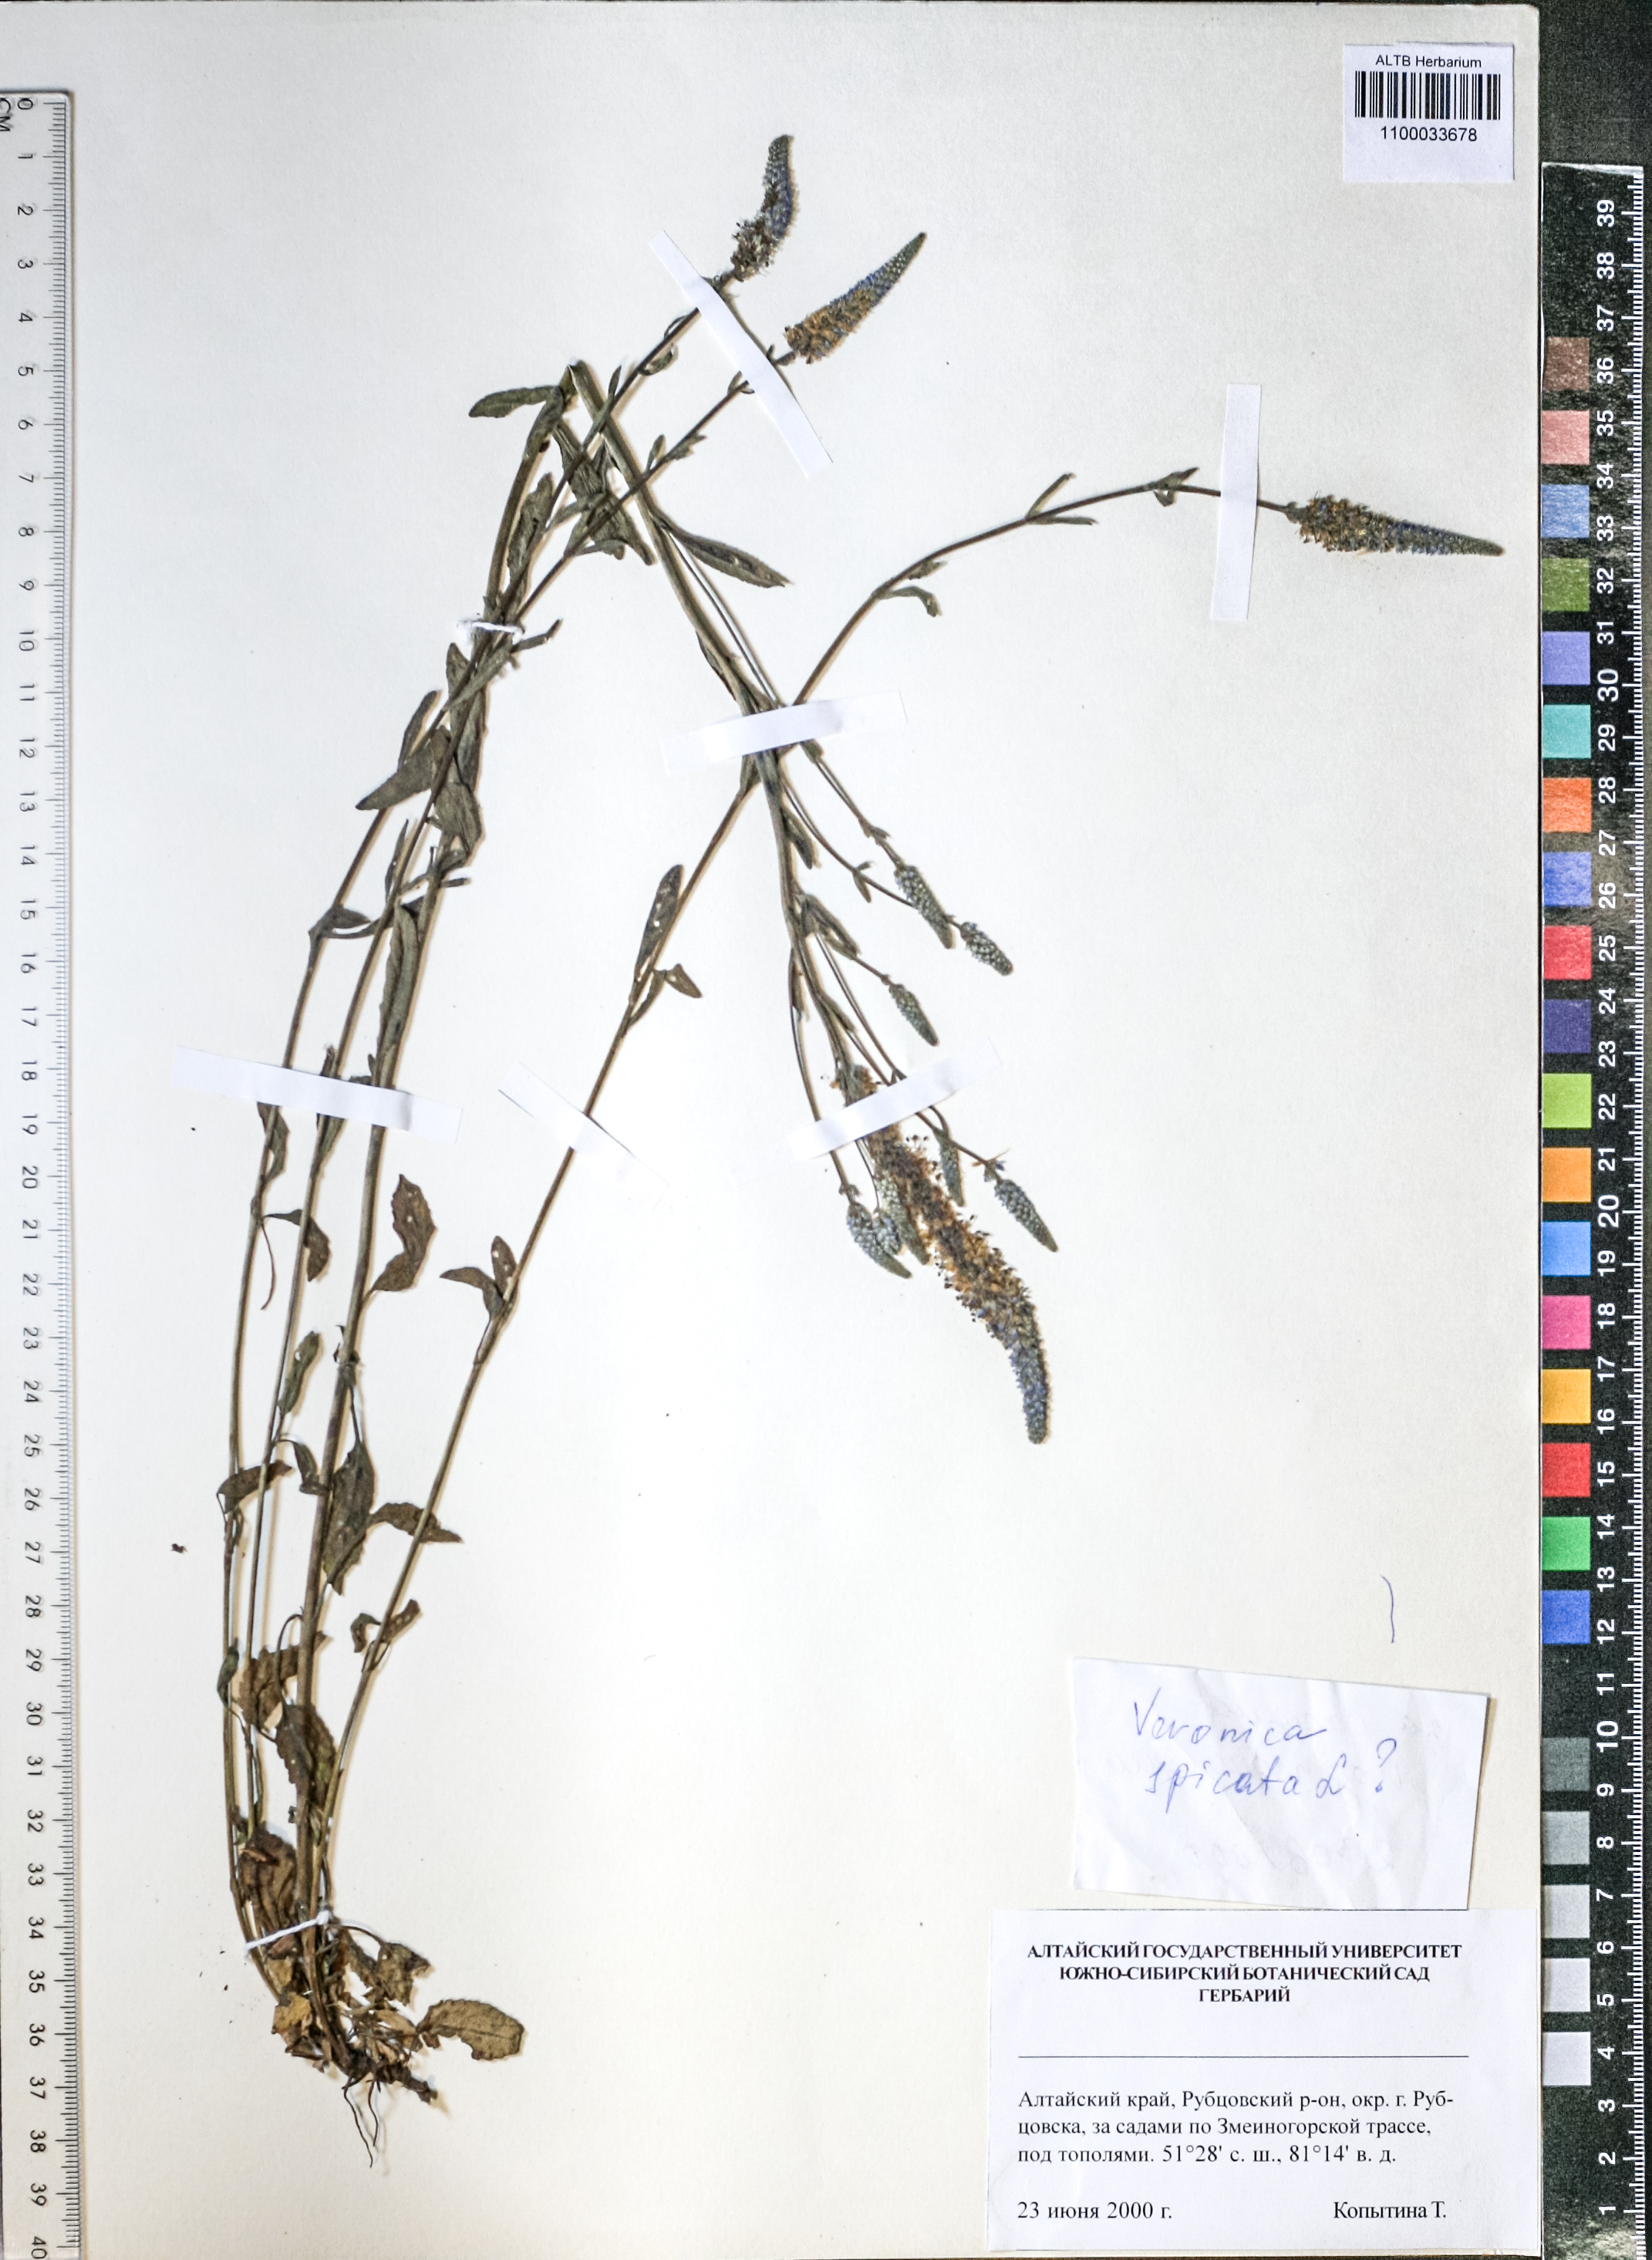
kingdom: Plantae
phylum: Tracheophyta
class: Magnoliopsida
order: Lamiales
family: Plantaginaceae
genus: Veronica
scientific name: Veronica spicata
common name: Spiked speedwell
